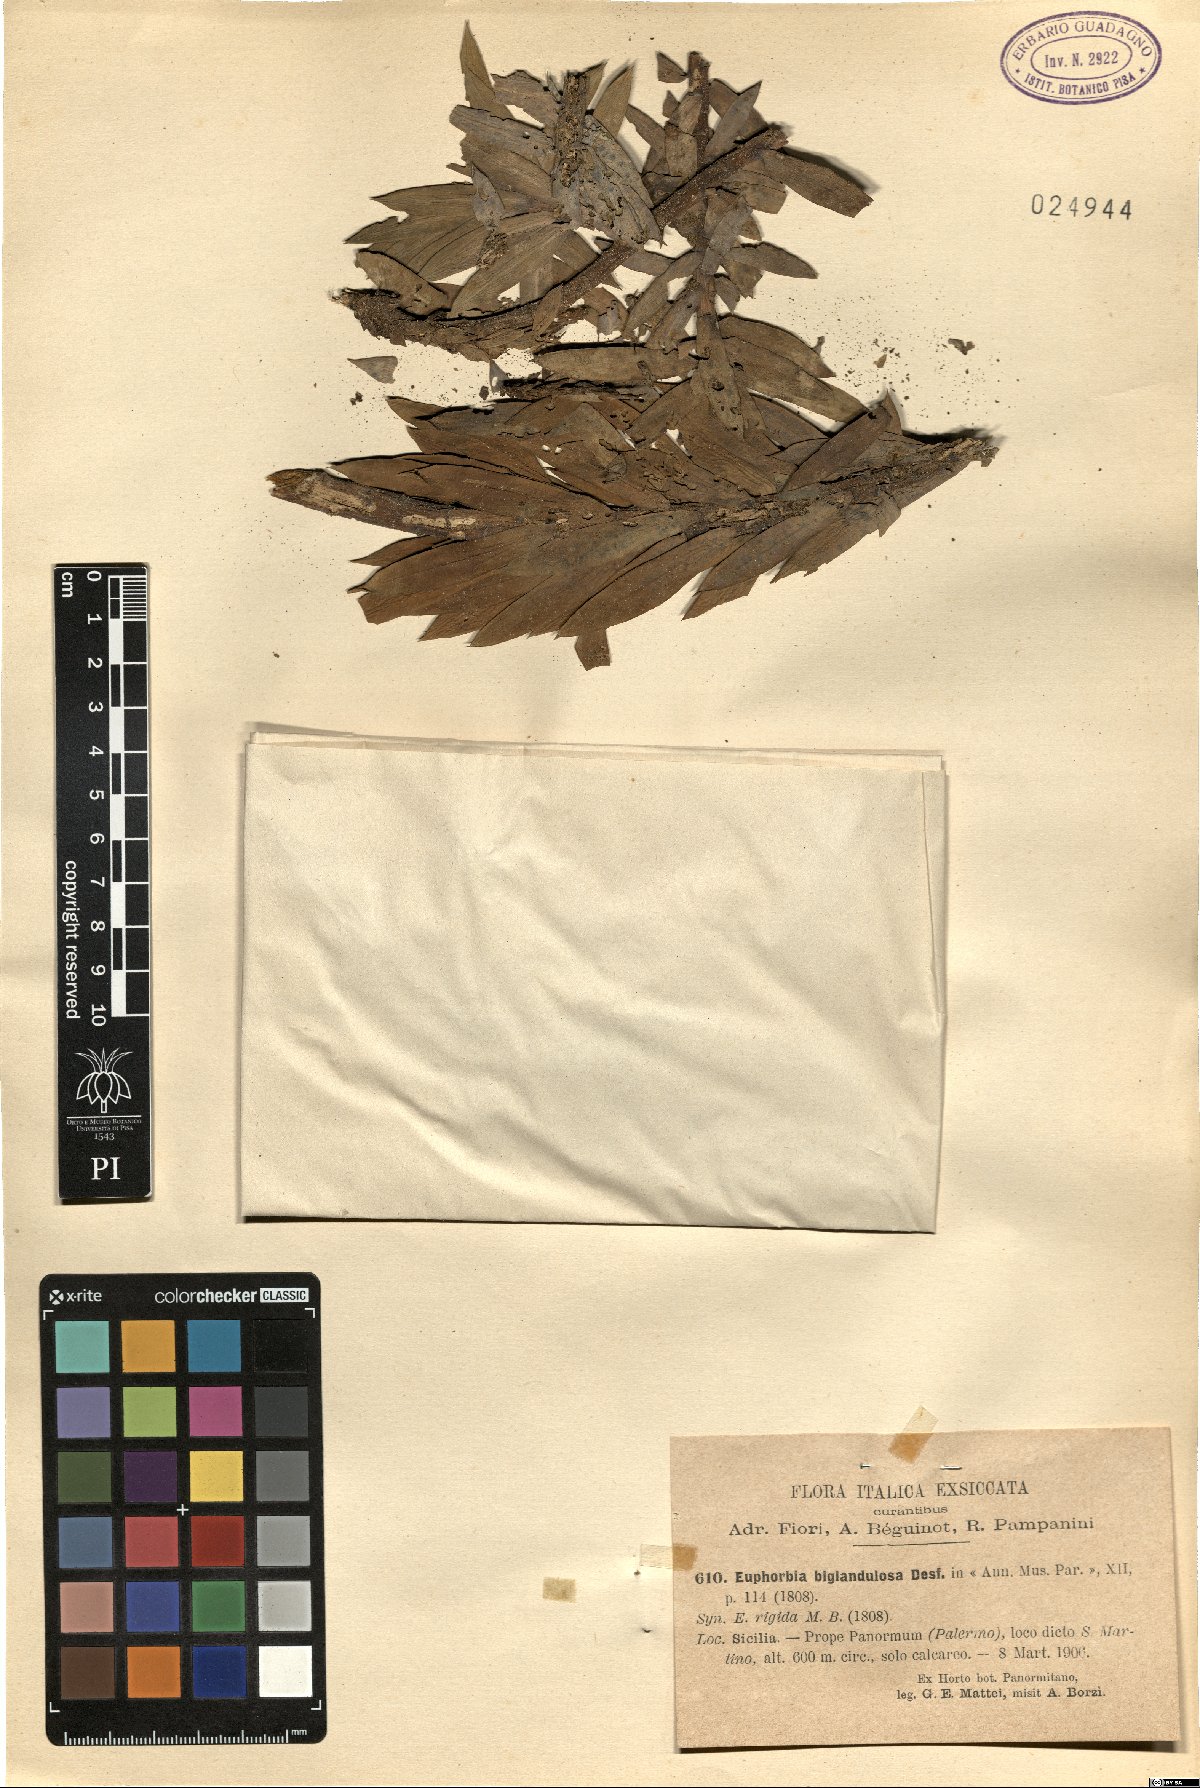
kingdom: Plantae
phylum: Tracheophyta
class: Magnoliopsida
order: Malpighiales
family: Euphorbiaceae
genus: Euphorbia
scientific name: Euphorbia rigida
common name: Upright myrtle spurge
